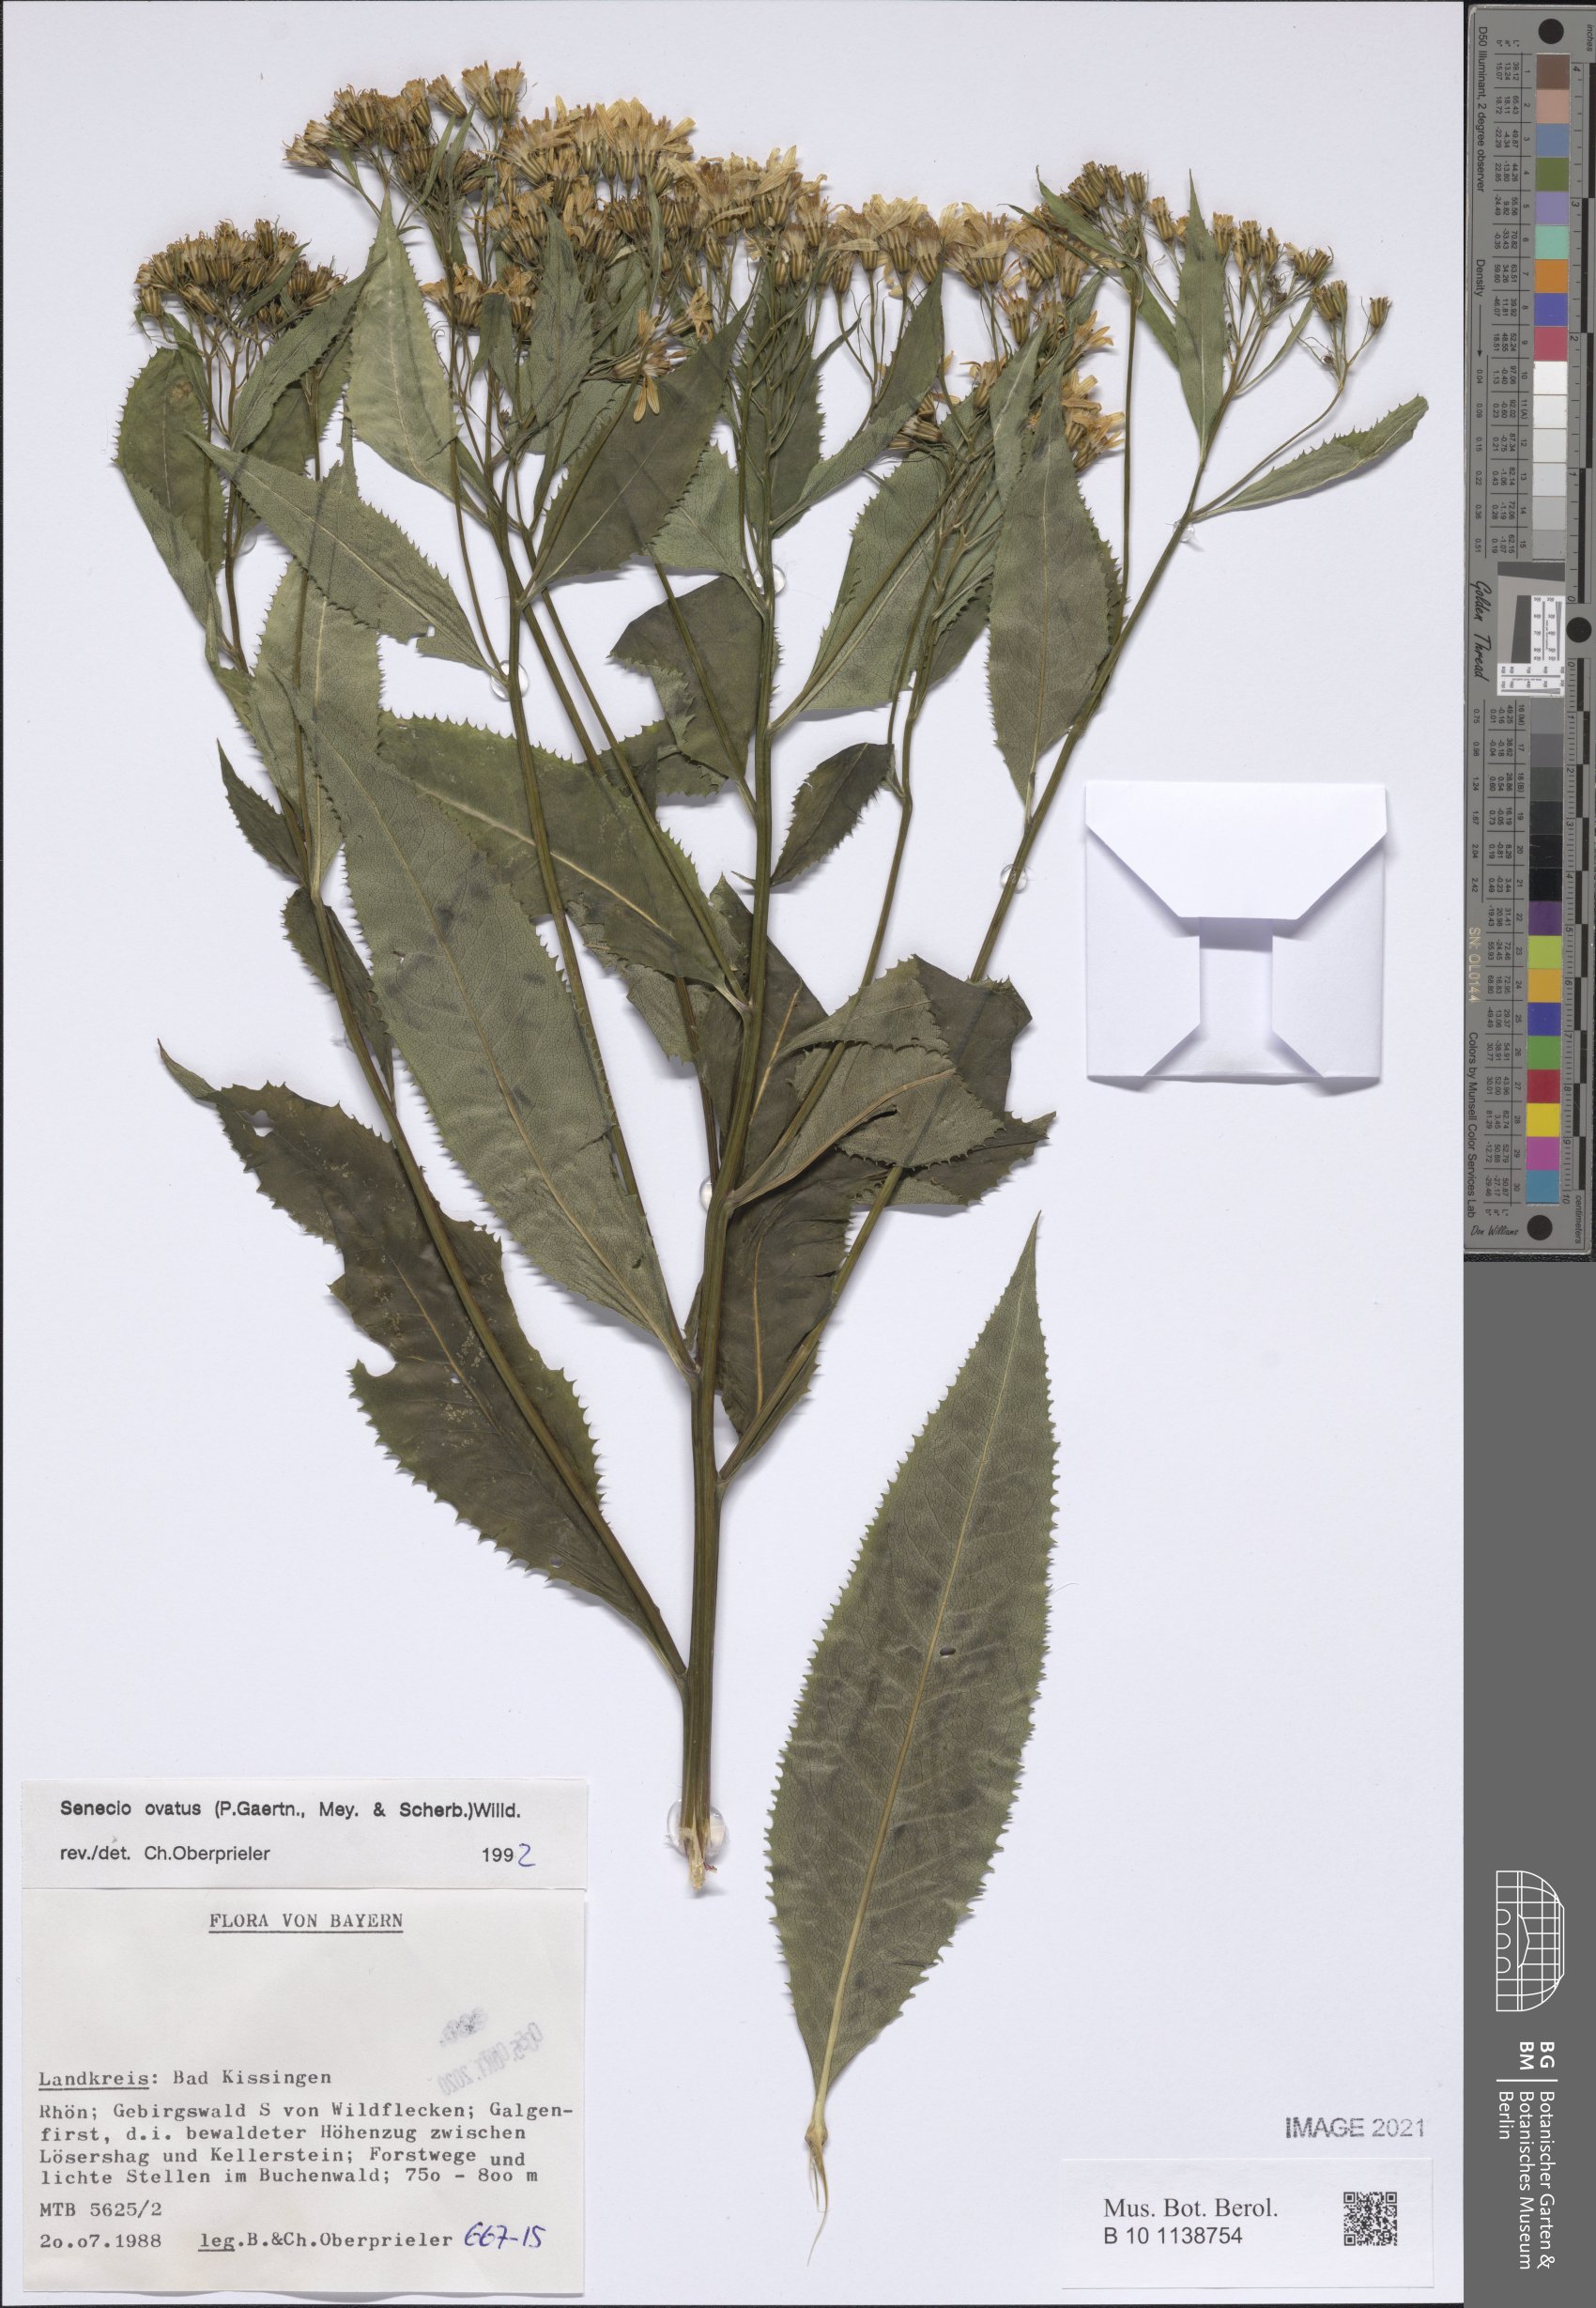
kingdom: Plantae
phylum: Tracheophyta
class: Magnoliopsida
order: Asterales
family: Asteraceae
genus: Senecio
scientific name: Senecio ovatus
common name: Wood ragwort
